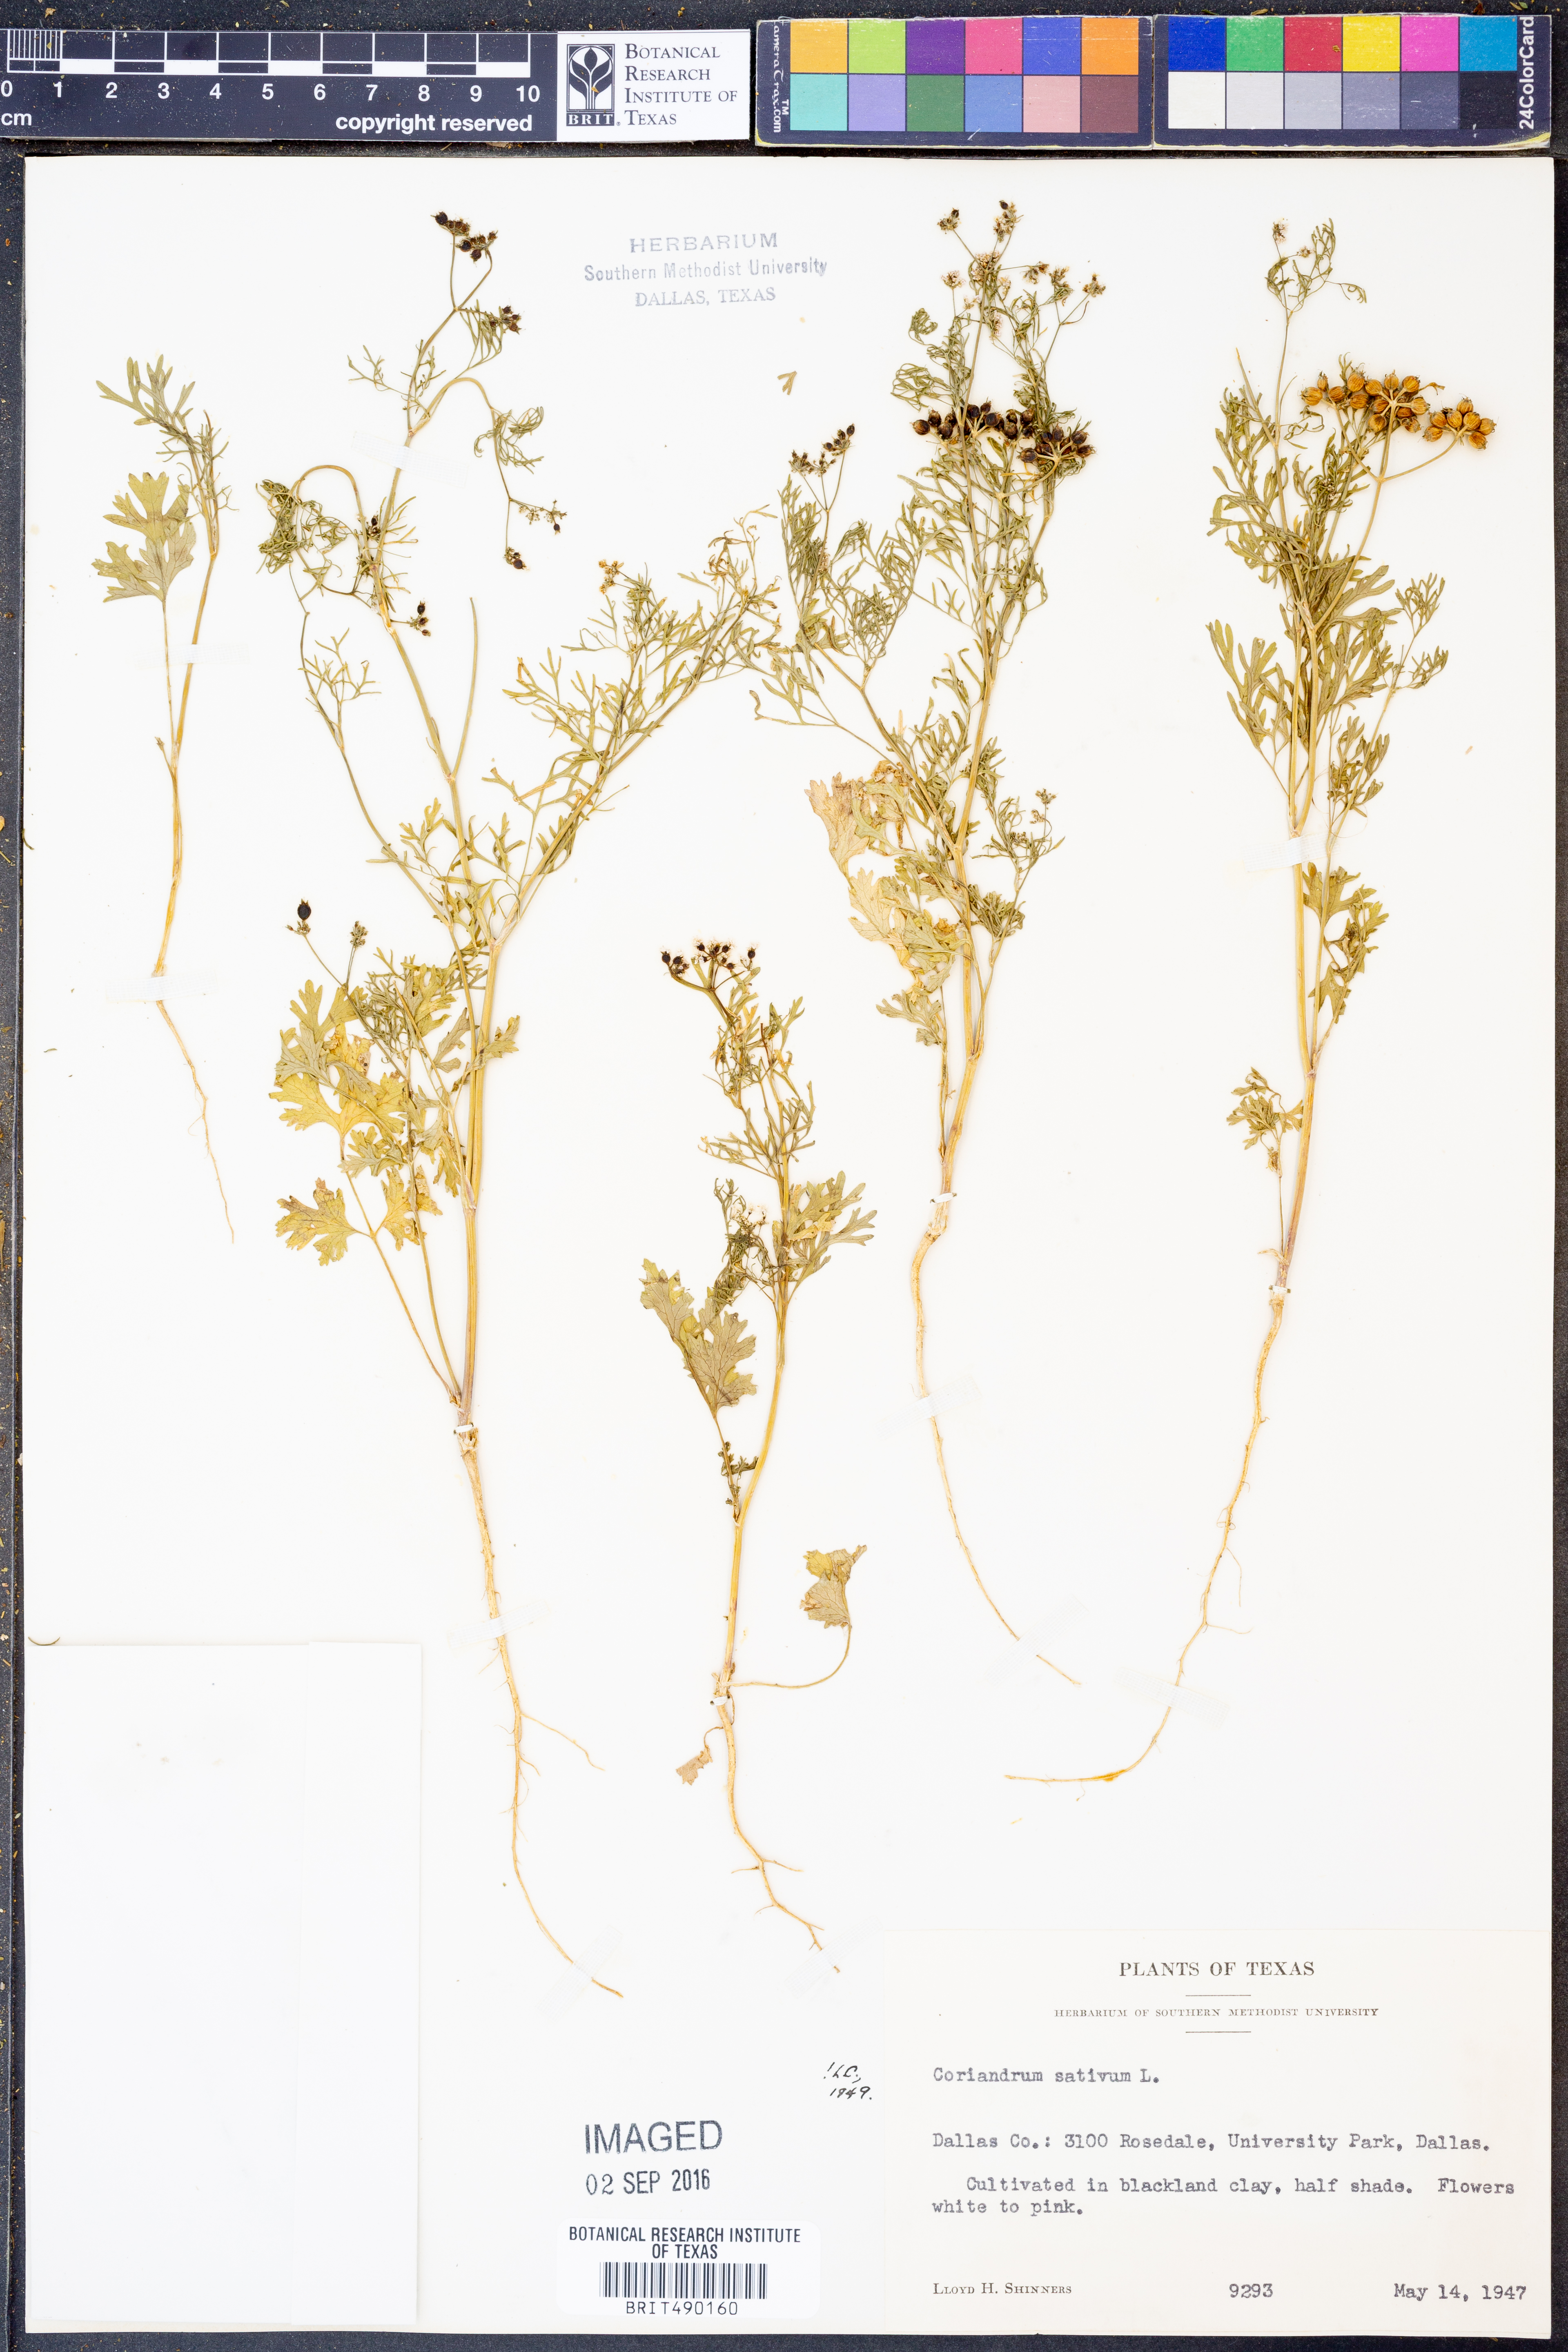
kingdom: Plantae
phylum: Tracheophyta
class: Magnoliopsida
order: Apiales
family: Apiaceae
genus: Coriandrum
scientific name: Coriandrum sativum
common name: Coriander
